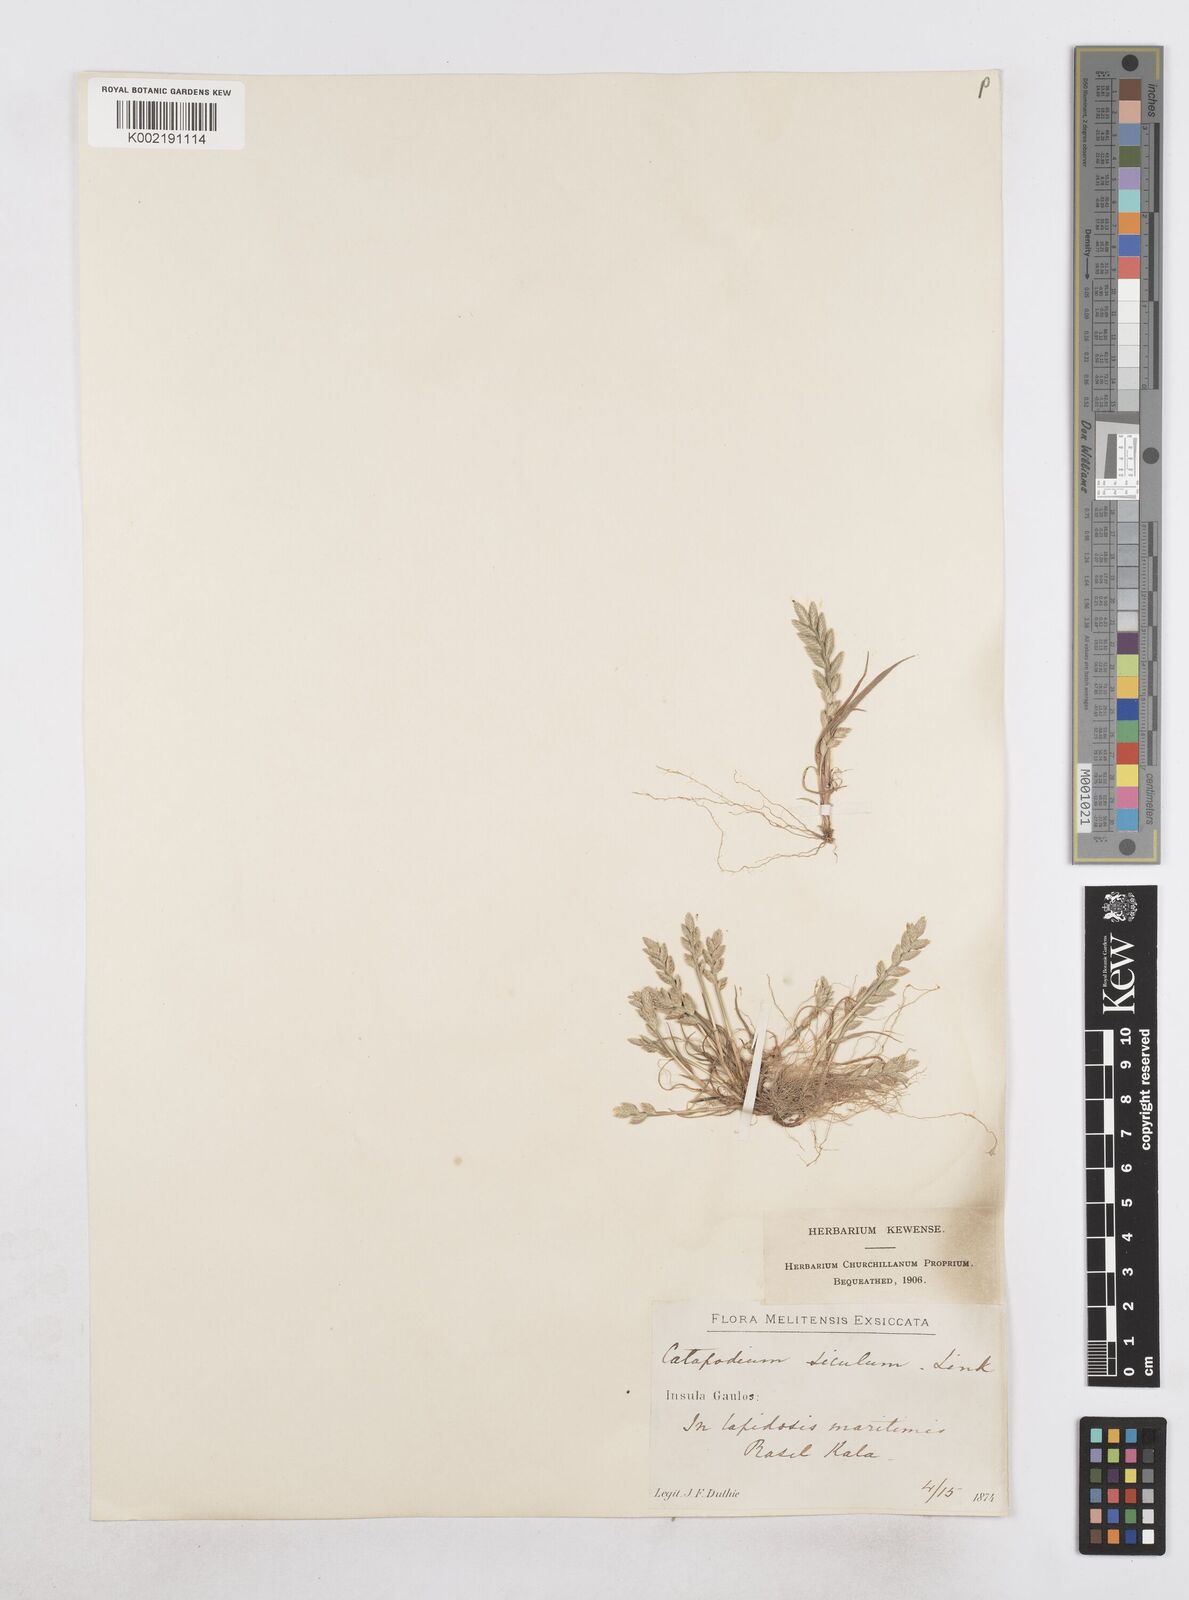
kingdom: Plantae
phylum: Tracheophyta
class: Liliopsida
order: Poales
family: Poaceae
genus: Catapodium
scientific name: Catapodium marinum
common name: Sea fern-grass
